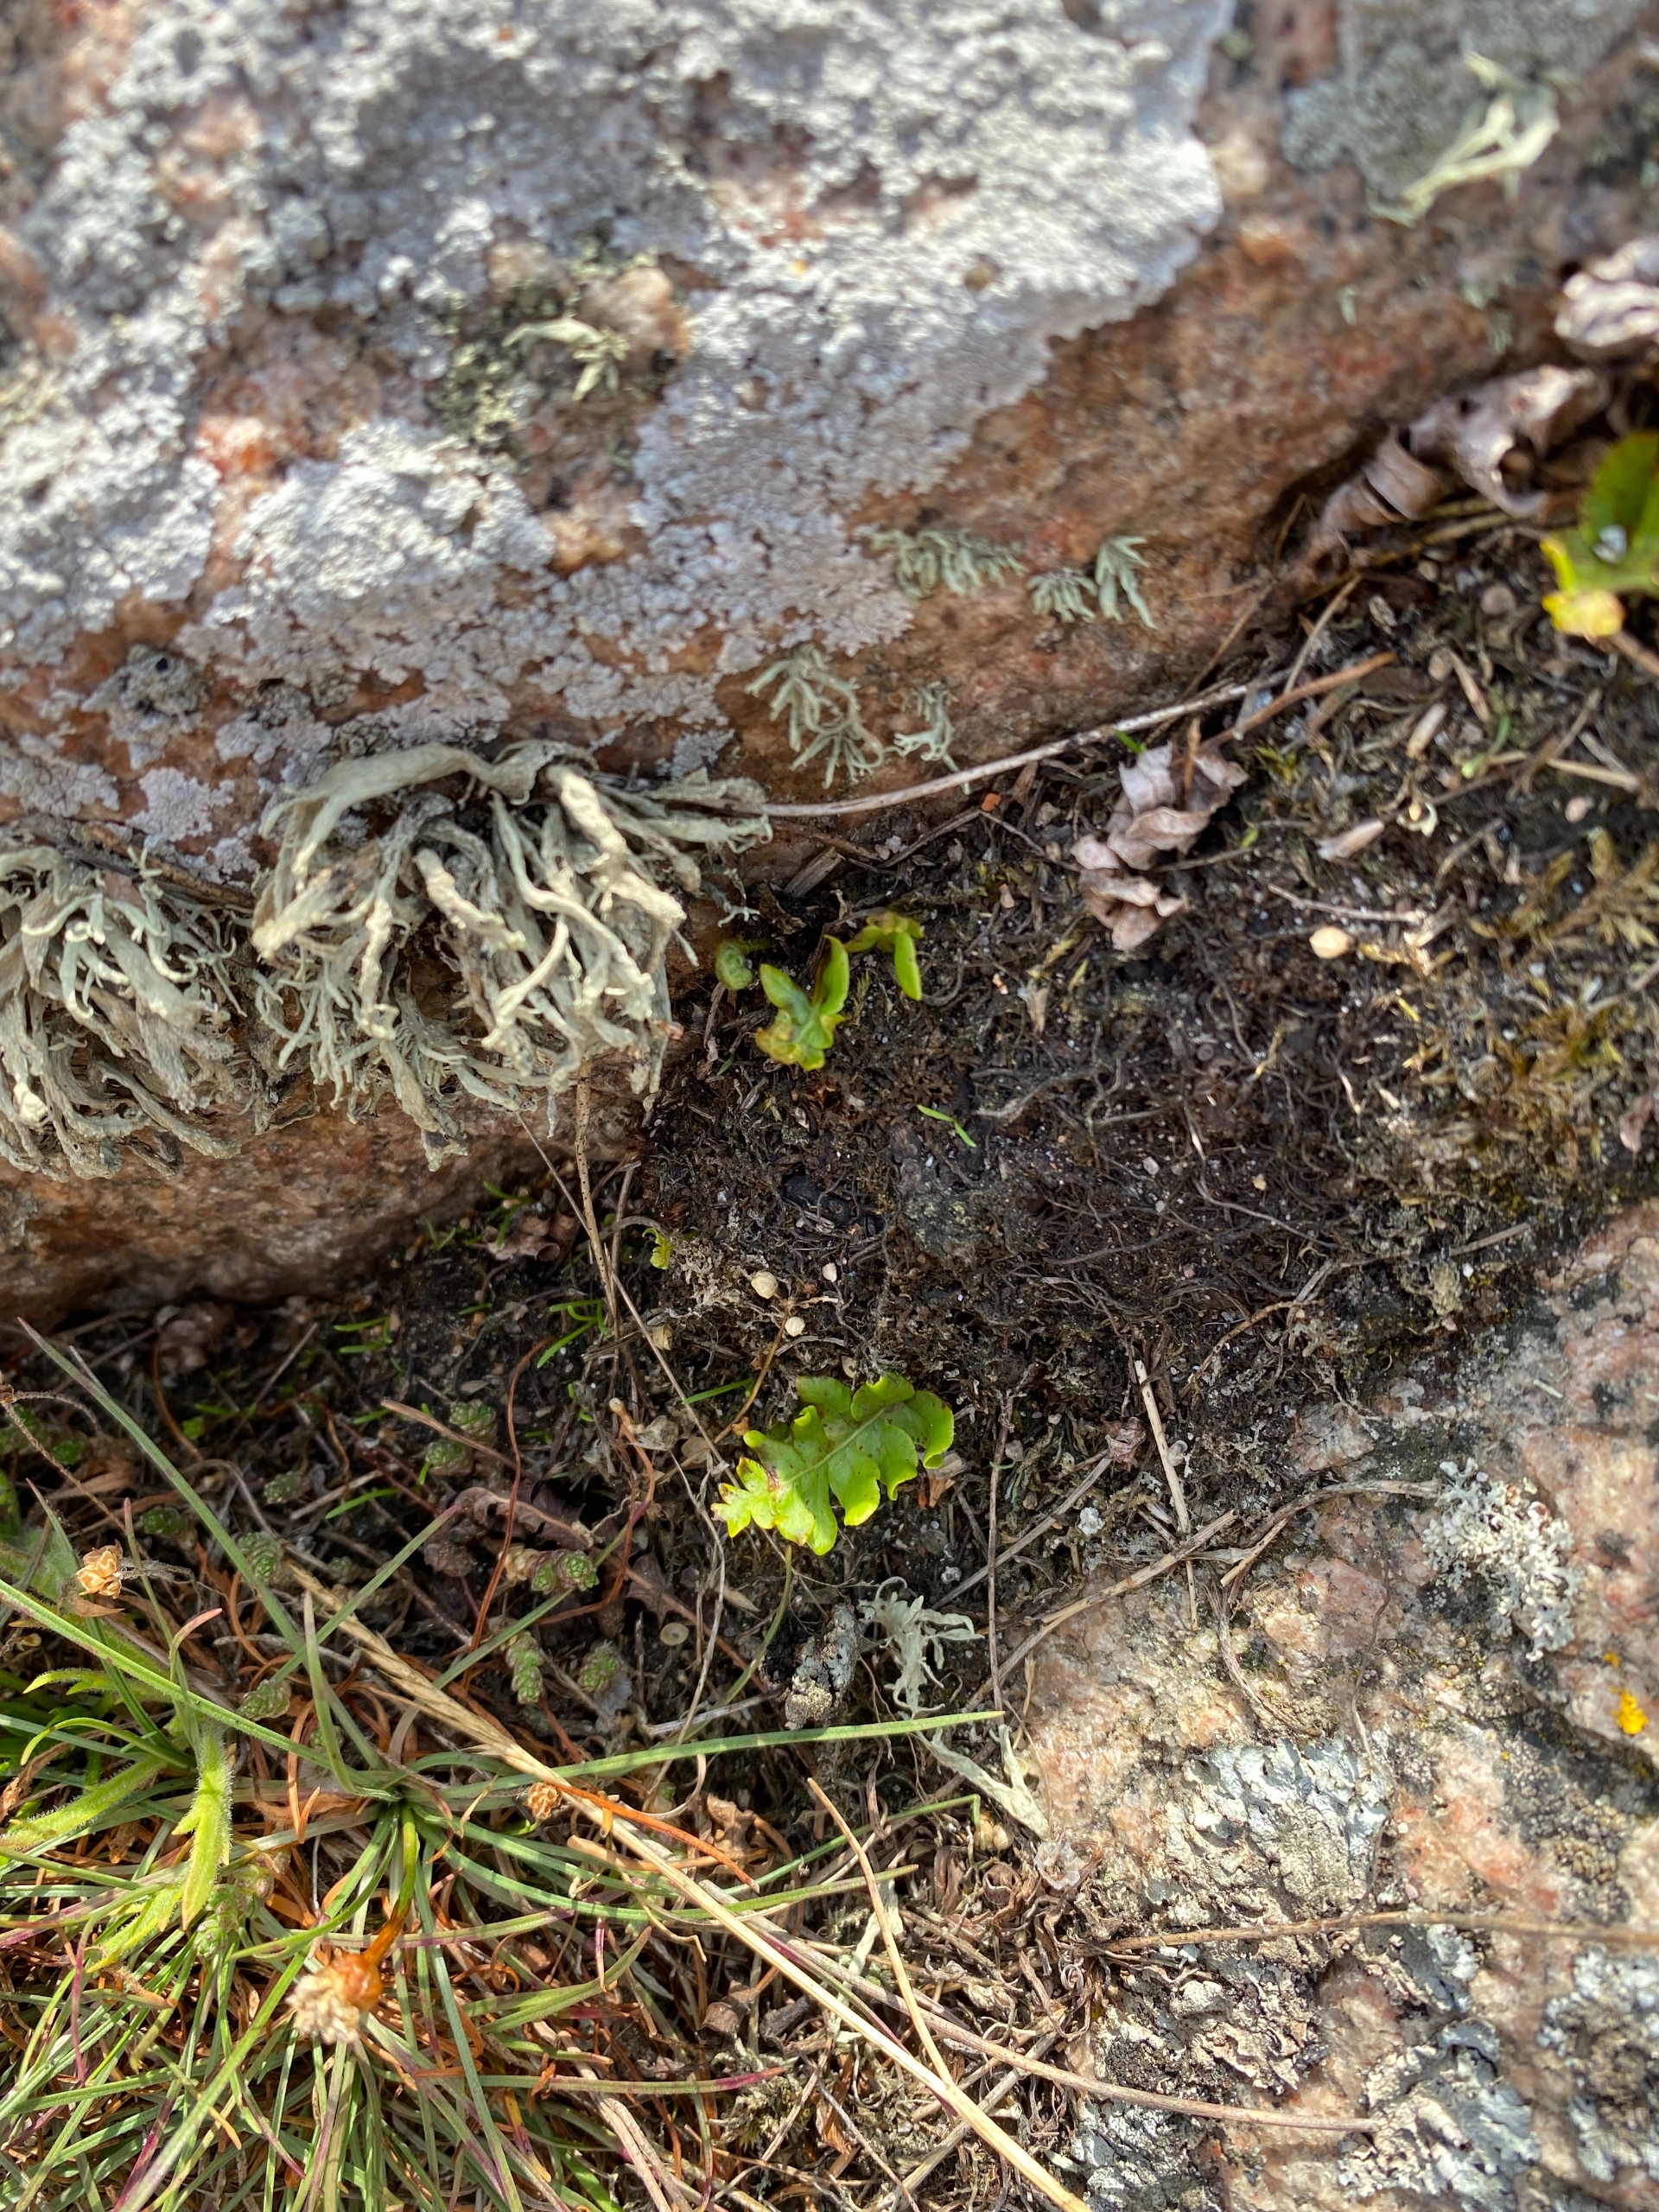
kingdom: Plantae
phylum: Tracheophyta
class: Polypodiopsida
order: Polypodiales
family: Polypodiaceae
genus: Polypodium
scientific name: Polypodium vulgare
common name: Almindelig engelsød
